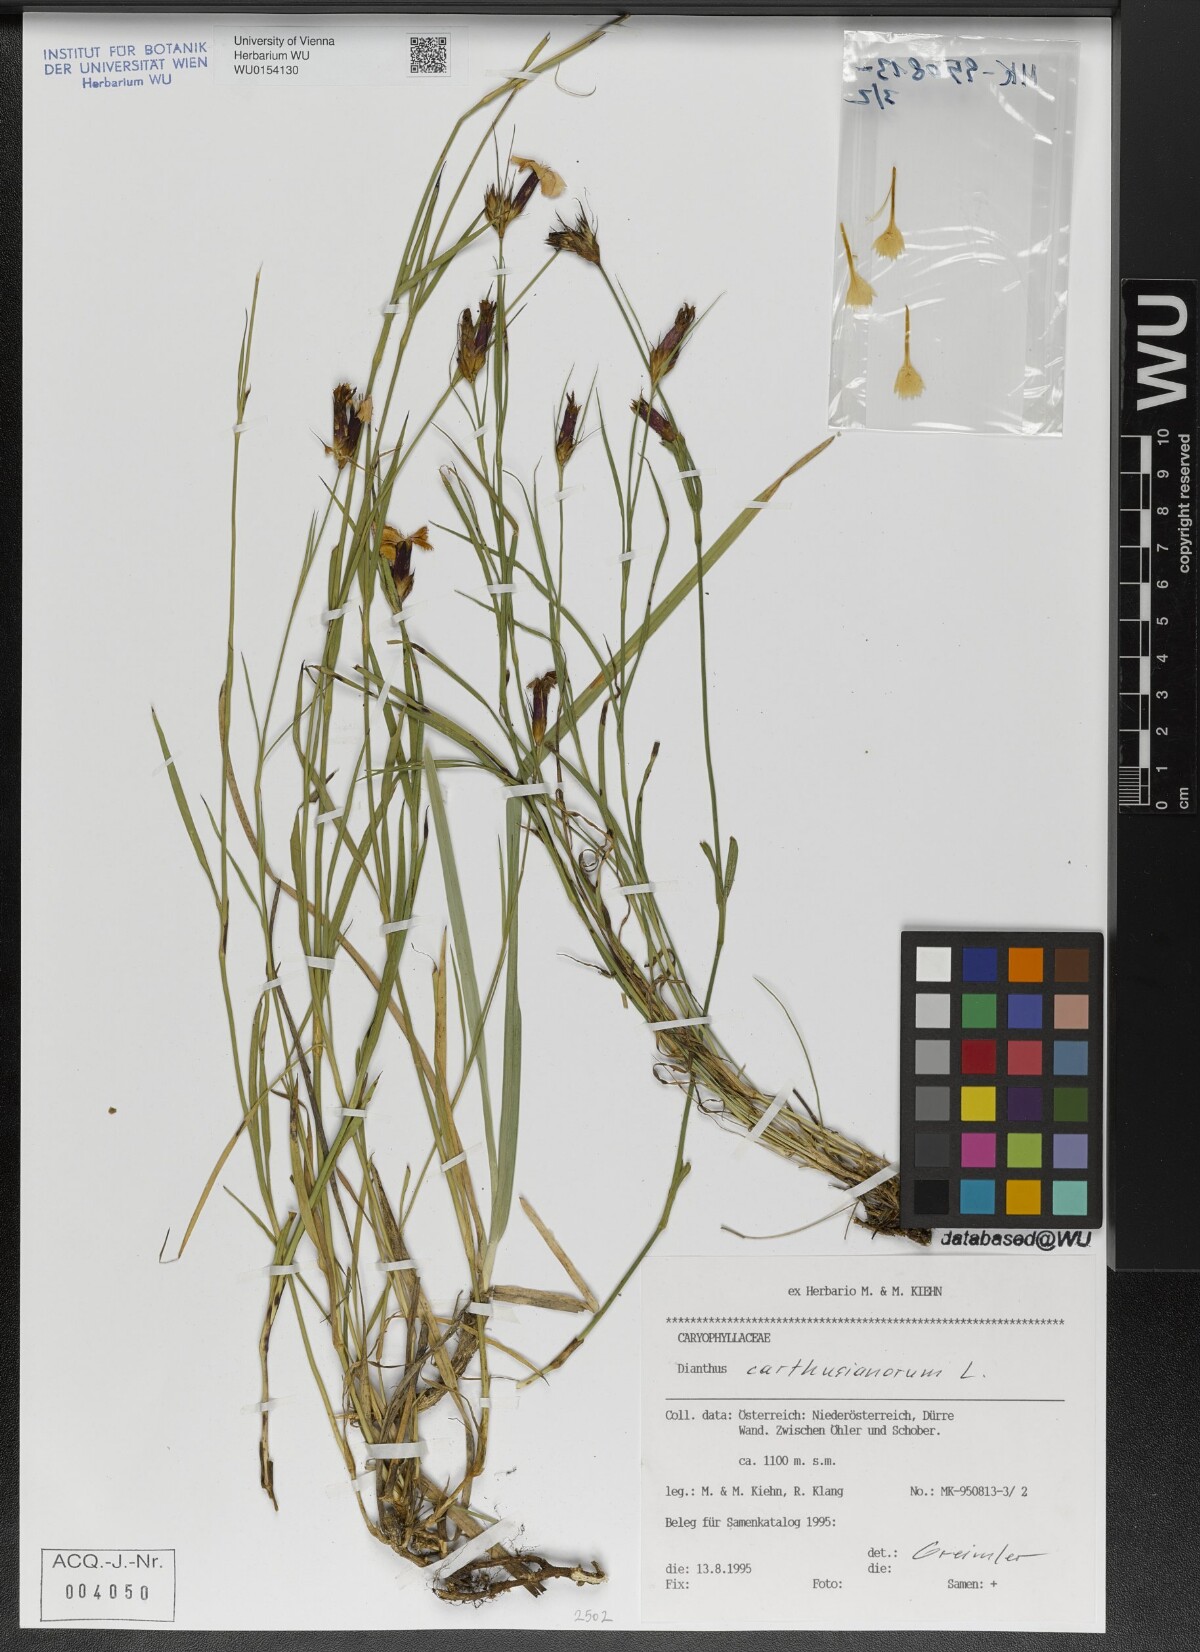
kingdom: Plantae
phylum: Tracheophyta
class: Magnoliopsida
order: Caryophyllales
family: Caryophyllaceae
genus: Dianthus
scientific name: Dianthus carthusianorum
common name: Carthusian pink
